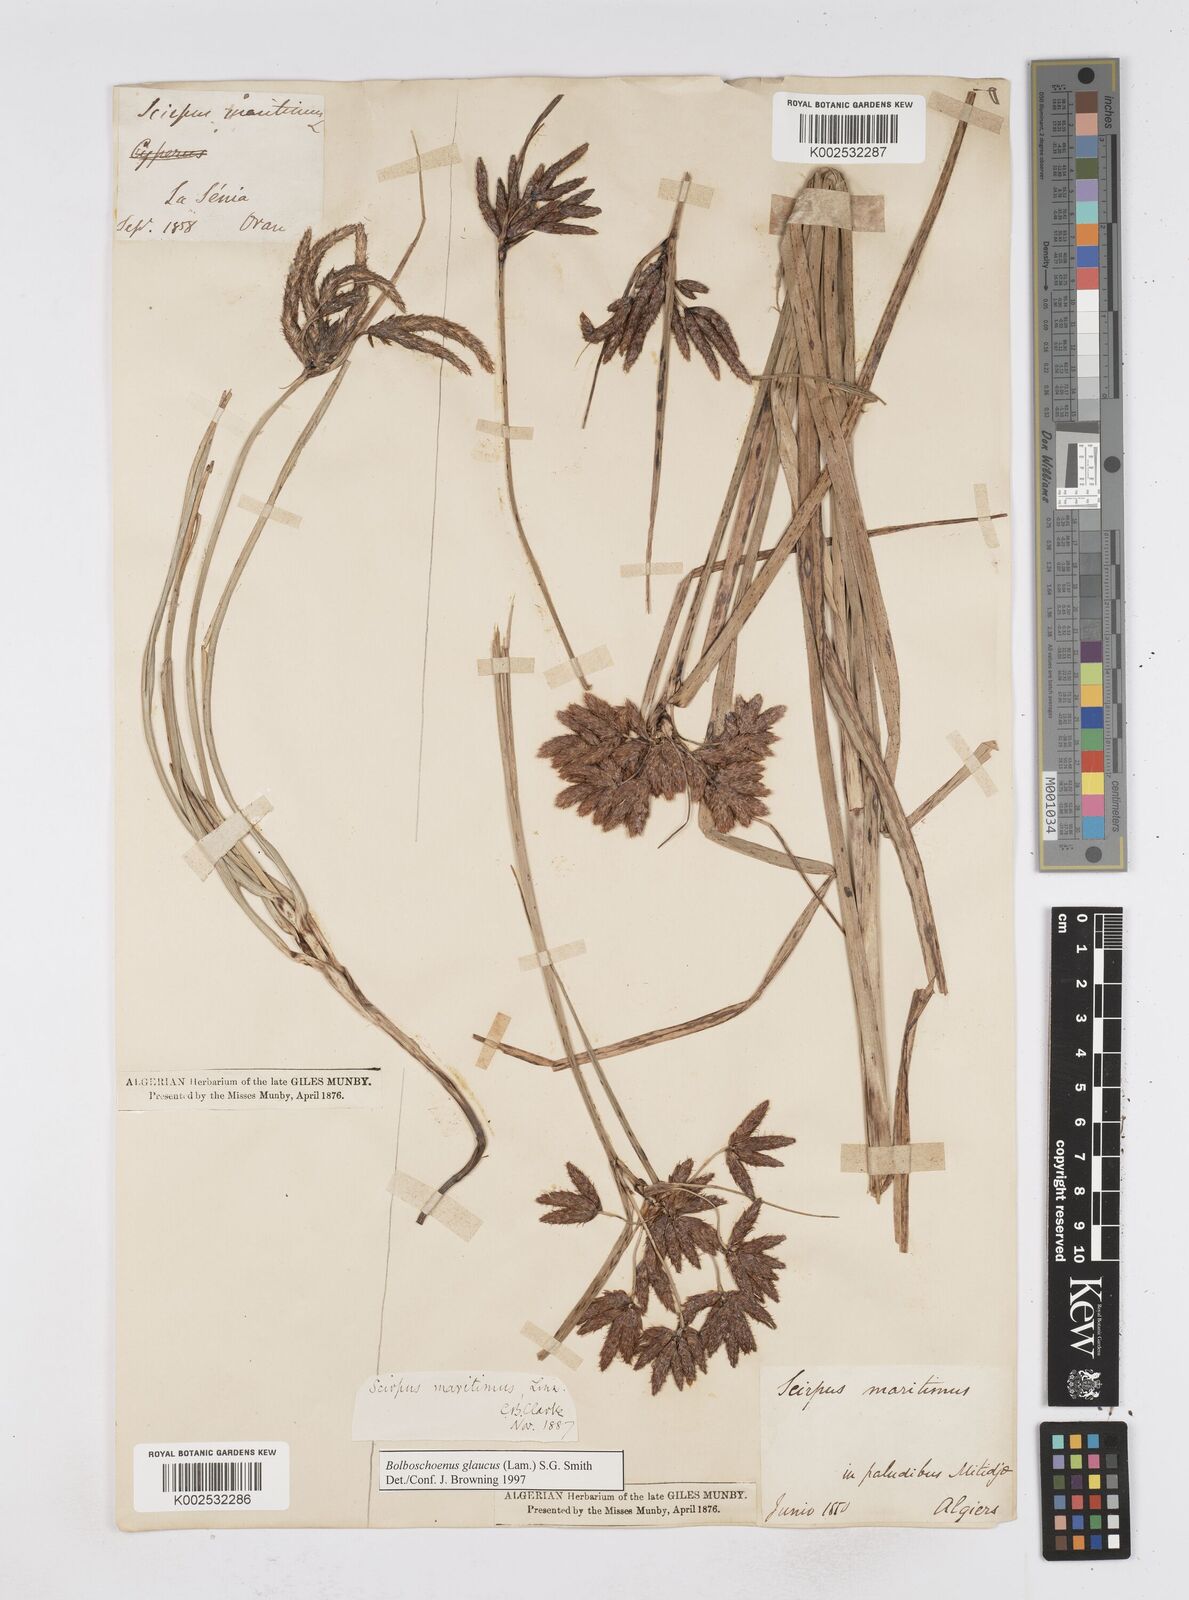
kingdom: Plantae
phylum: Tracheophyta
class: Liliopsida
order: Poales
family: Cyperaceae
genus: Bolboschoenus
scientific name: Bolboschoenus maritimus
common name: Sea club-rush
